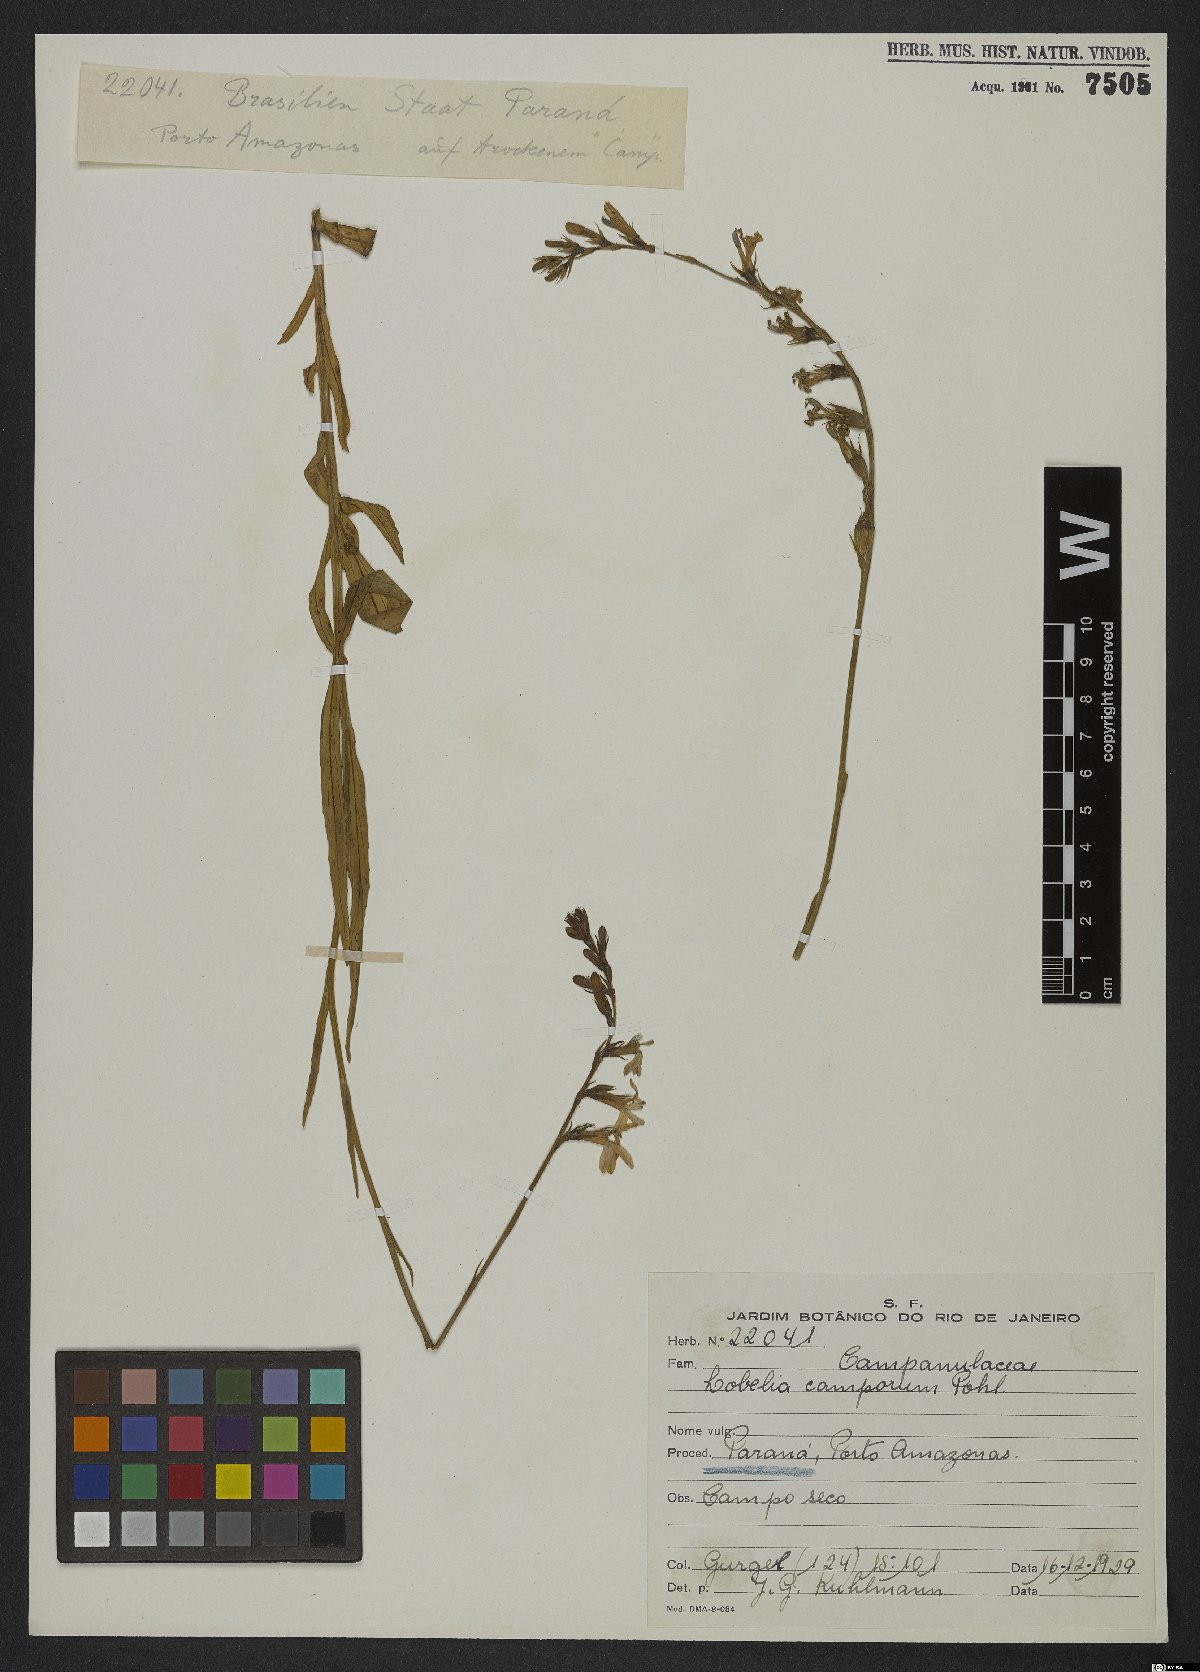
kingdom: Plantae
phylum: Tracheophyta
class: Magnoliopsida
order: Asterales
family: Campanulaceae
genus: Lobelia
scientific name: Lobelia camporum
